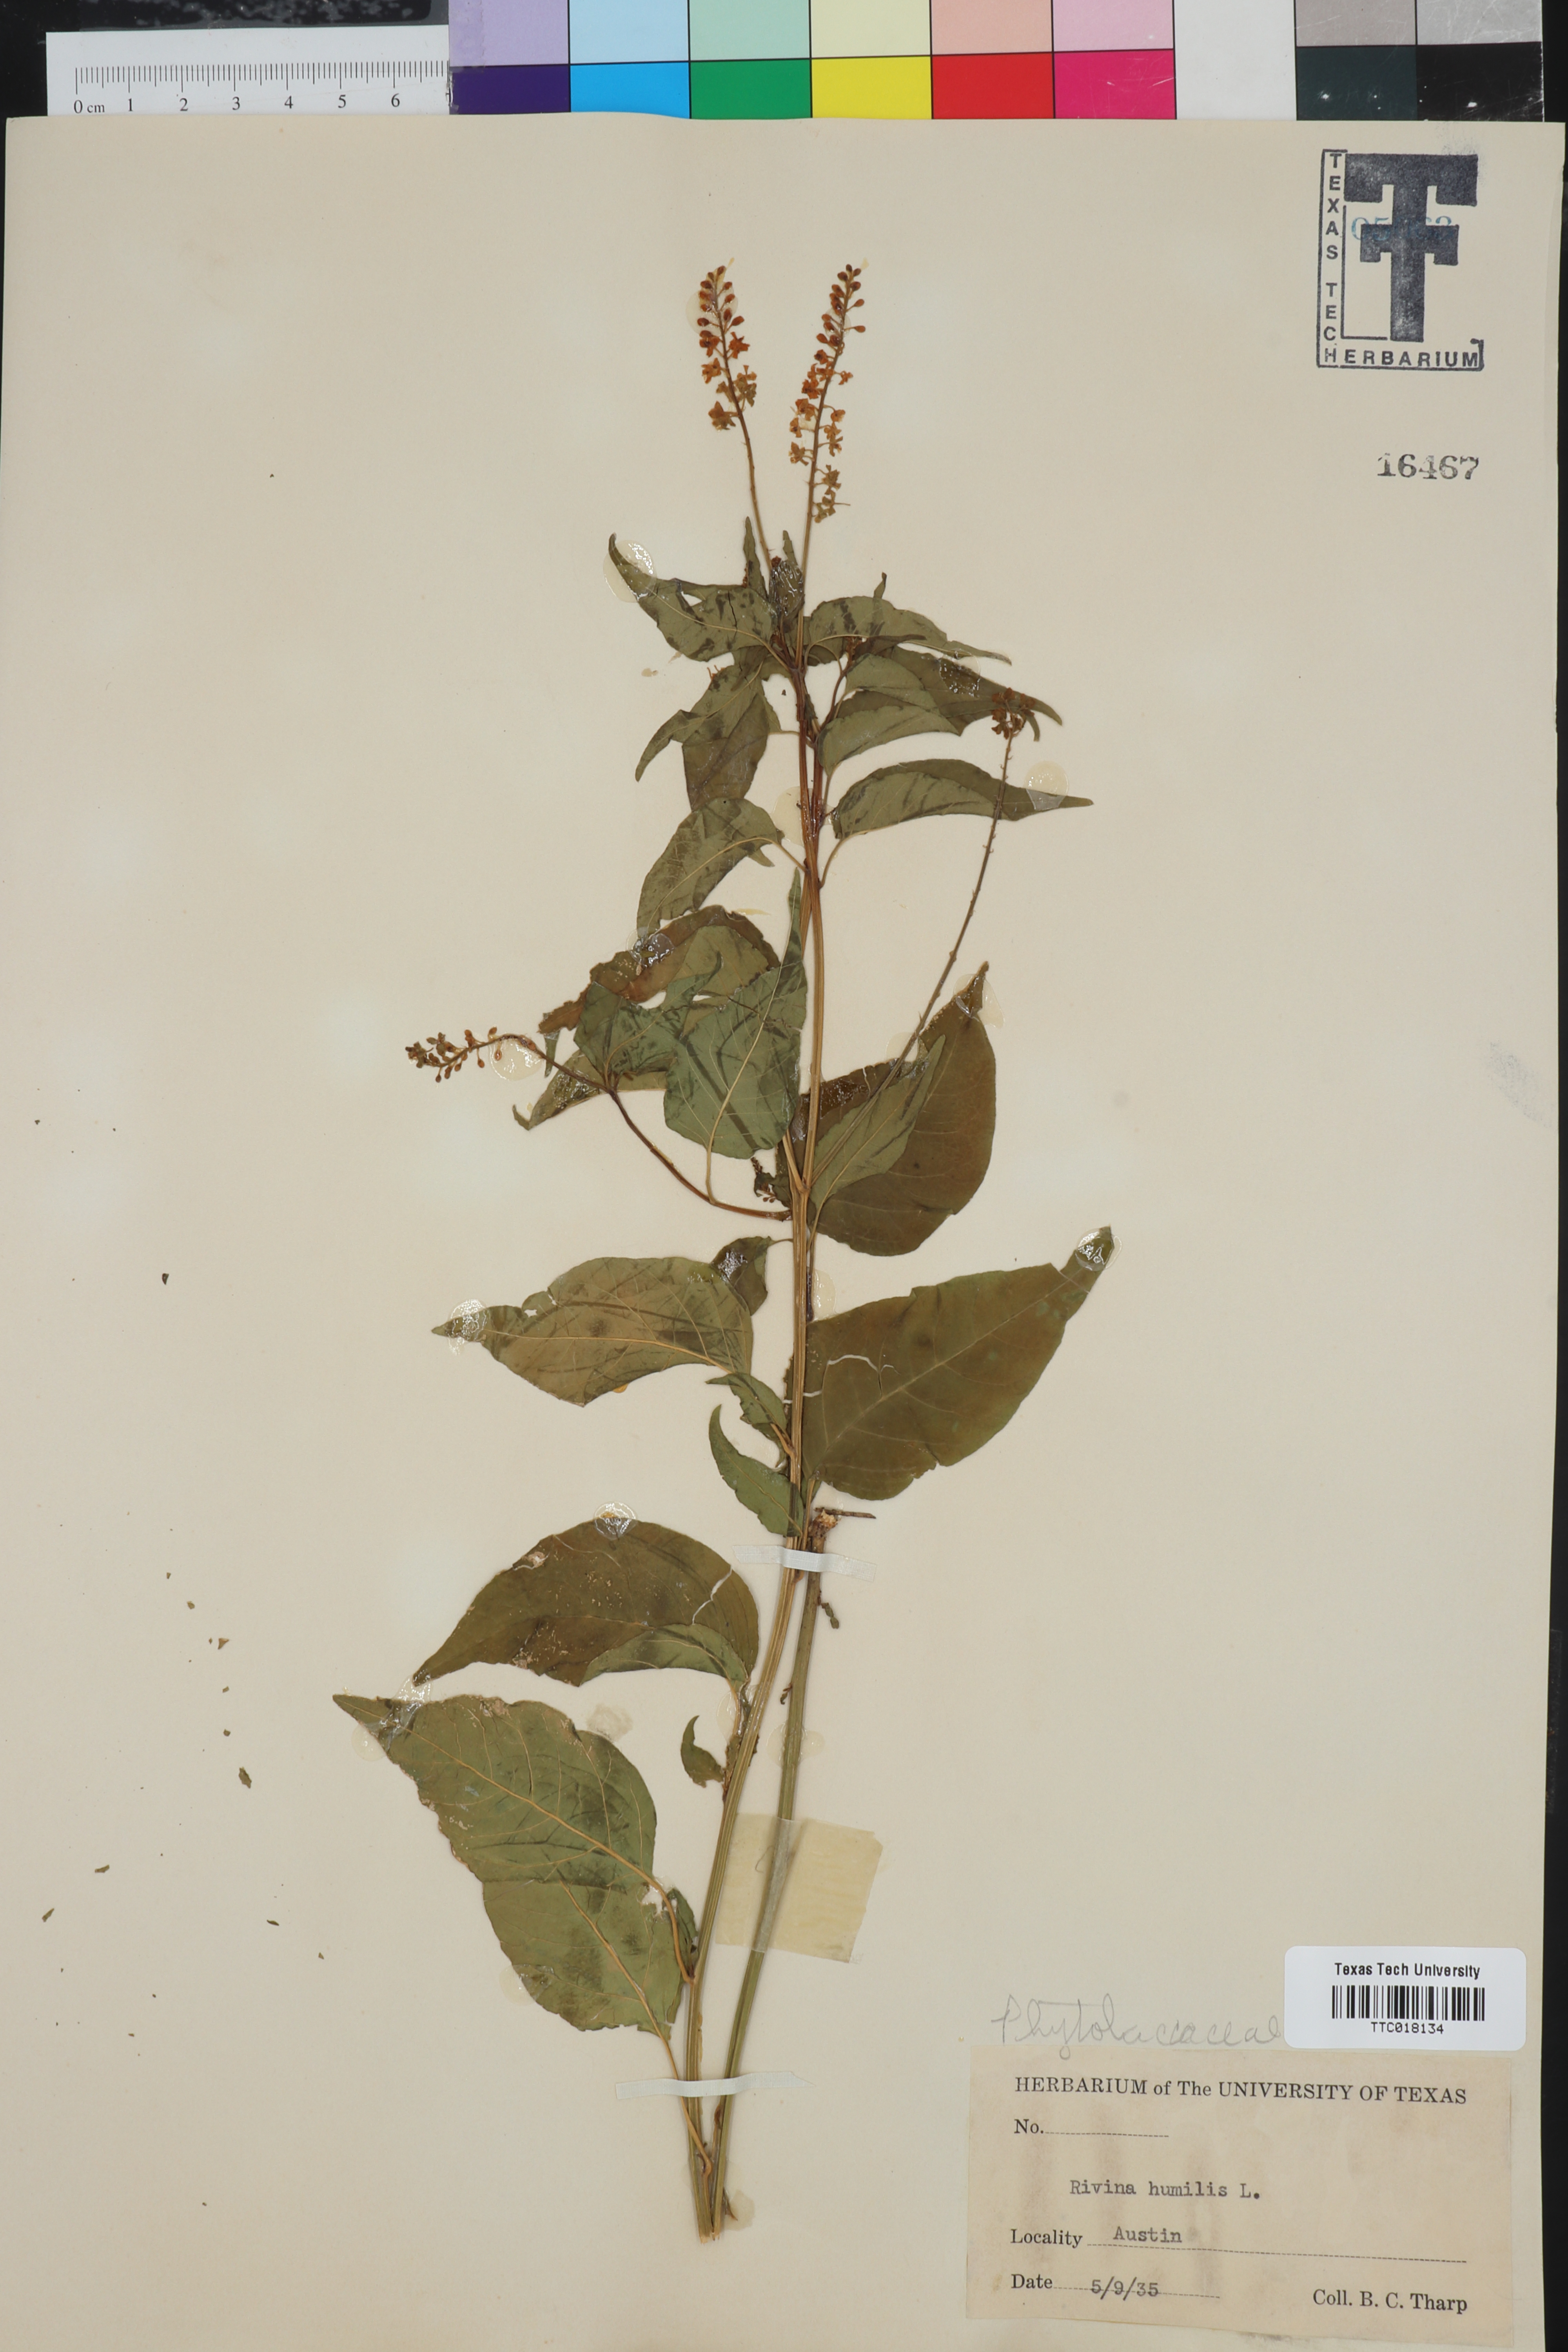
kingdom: Plantae
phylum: Tracheophyta
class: Magnoliopsida
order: Caryophyllales
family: Phytolaccaceae
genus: Rivina
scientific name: Rivina humilis
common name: Rougeplant
